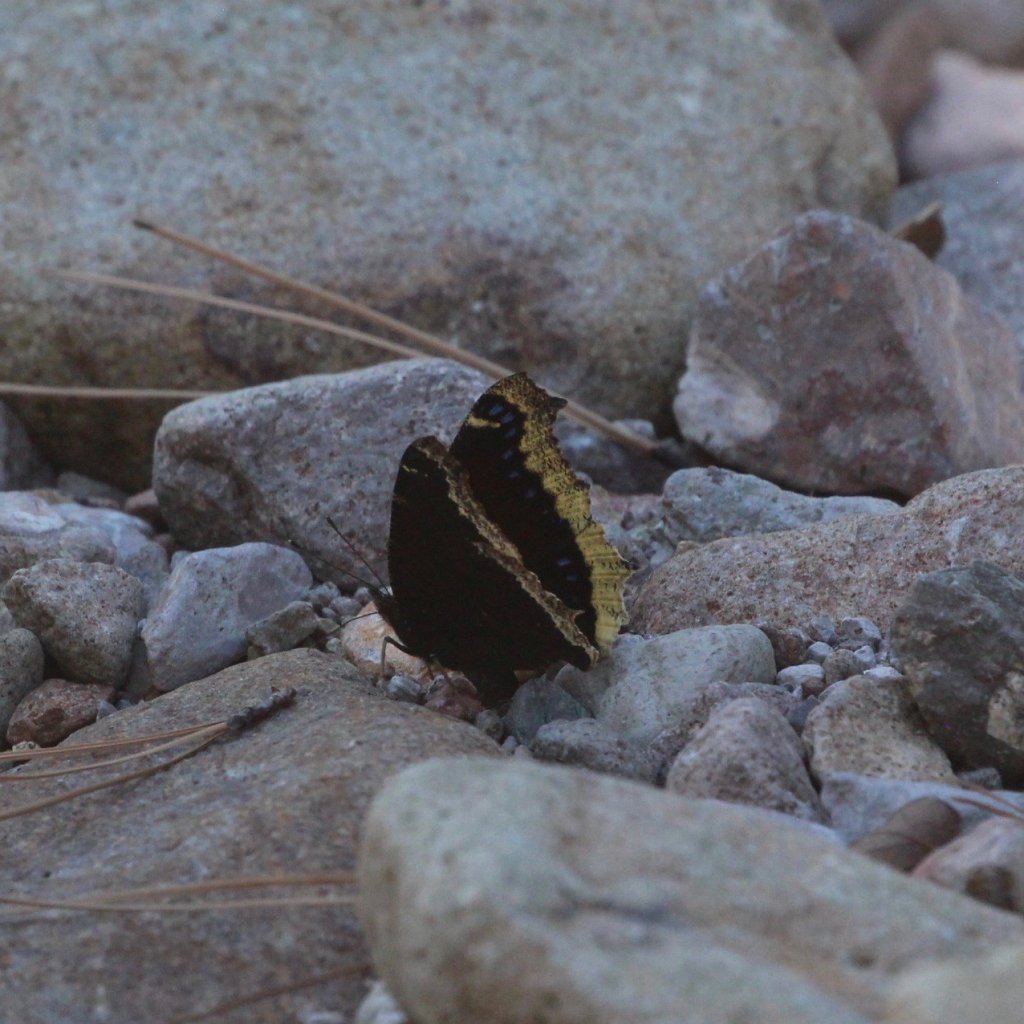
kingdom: Animalia
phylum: Arthropoda
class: Insecta
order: Lepidoptera
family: Nymphalidae
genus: Nymphalis
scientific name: Nymphalis antiopa
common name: Mourning Cloak
